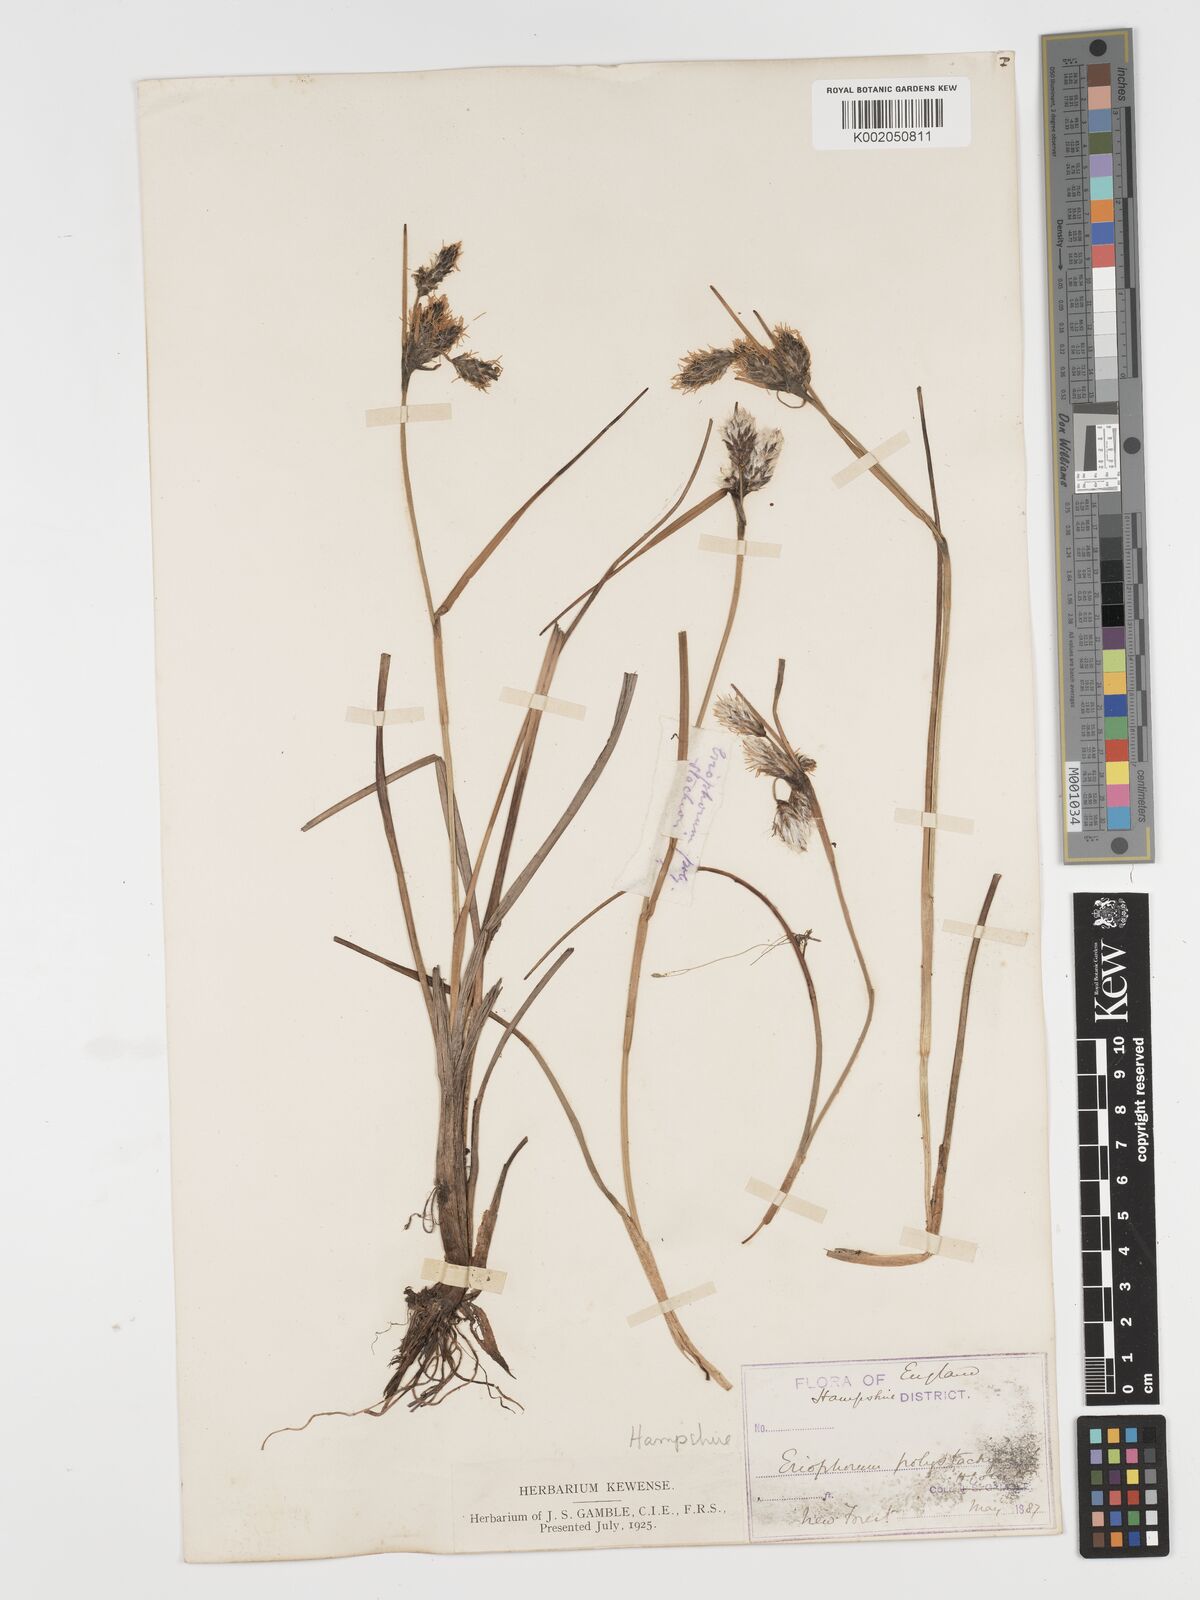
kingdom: Plantae
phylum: Tracheophyta
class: Liliopsida
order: Poales
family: Cyperaceae
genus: Eriophorum
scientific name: Eriophorum angustifolium
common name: Common cottongrass
